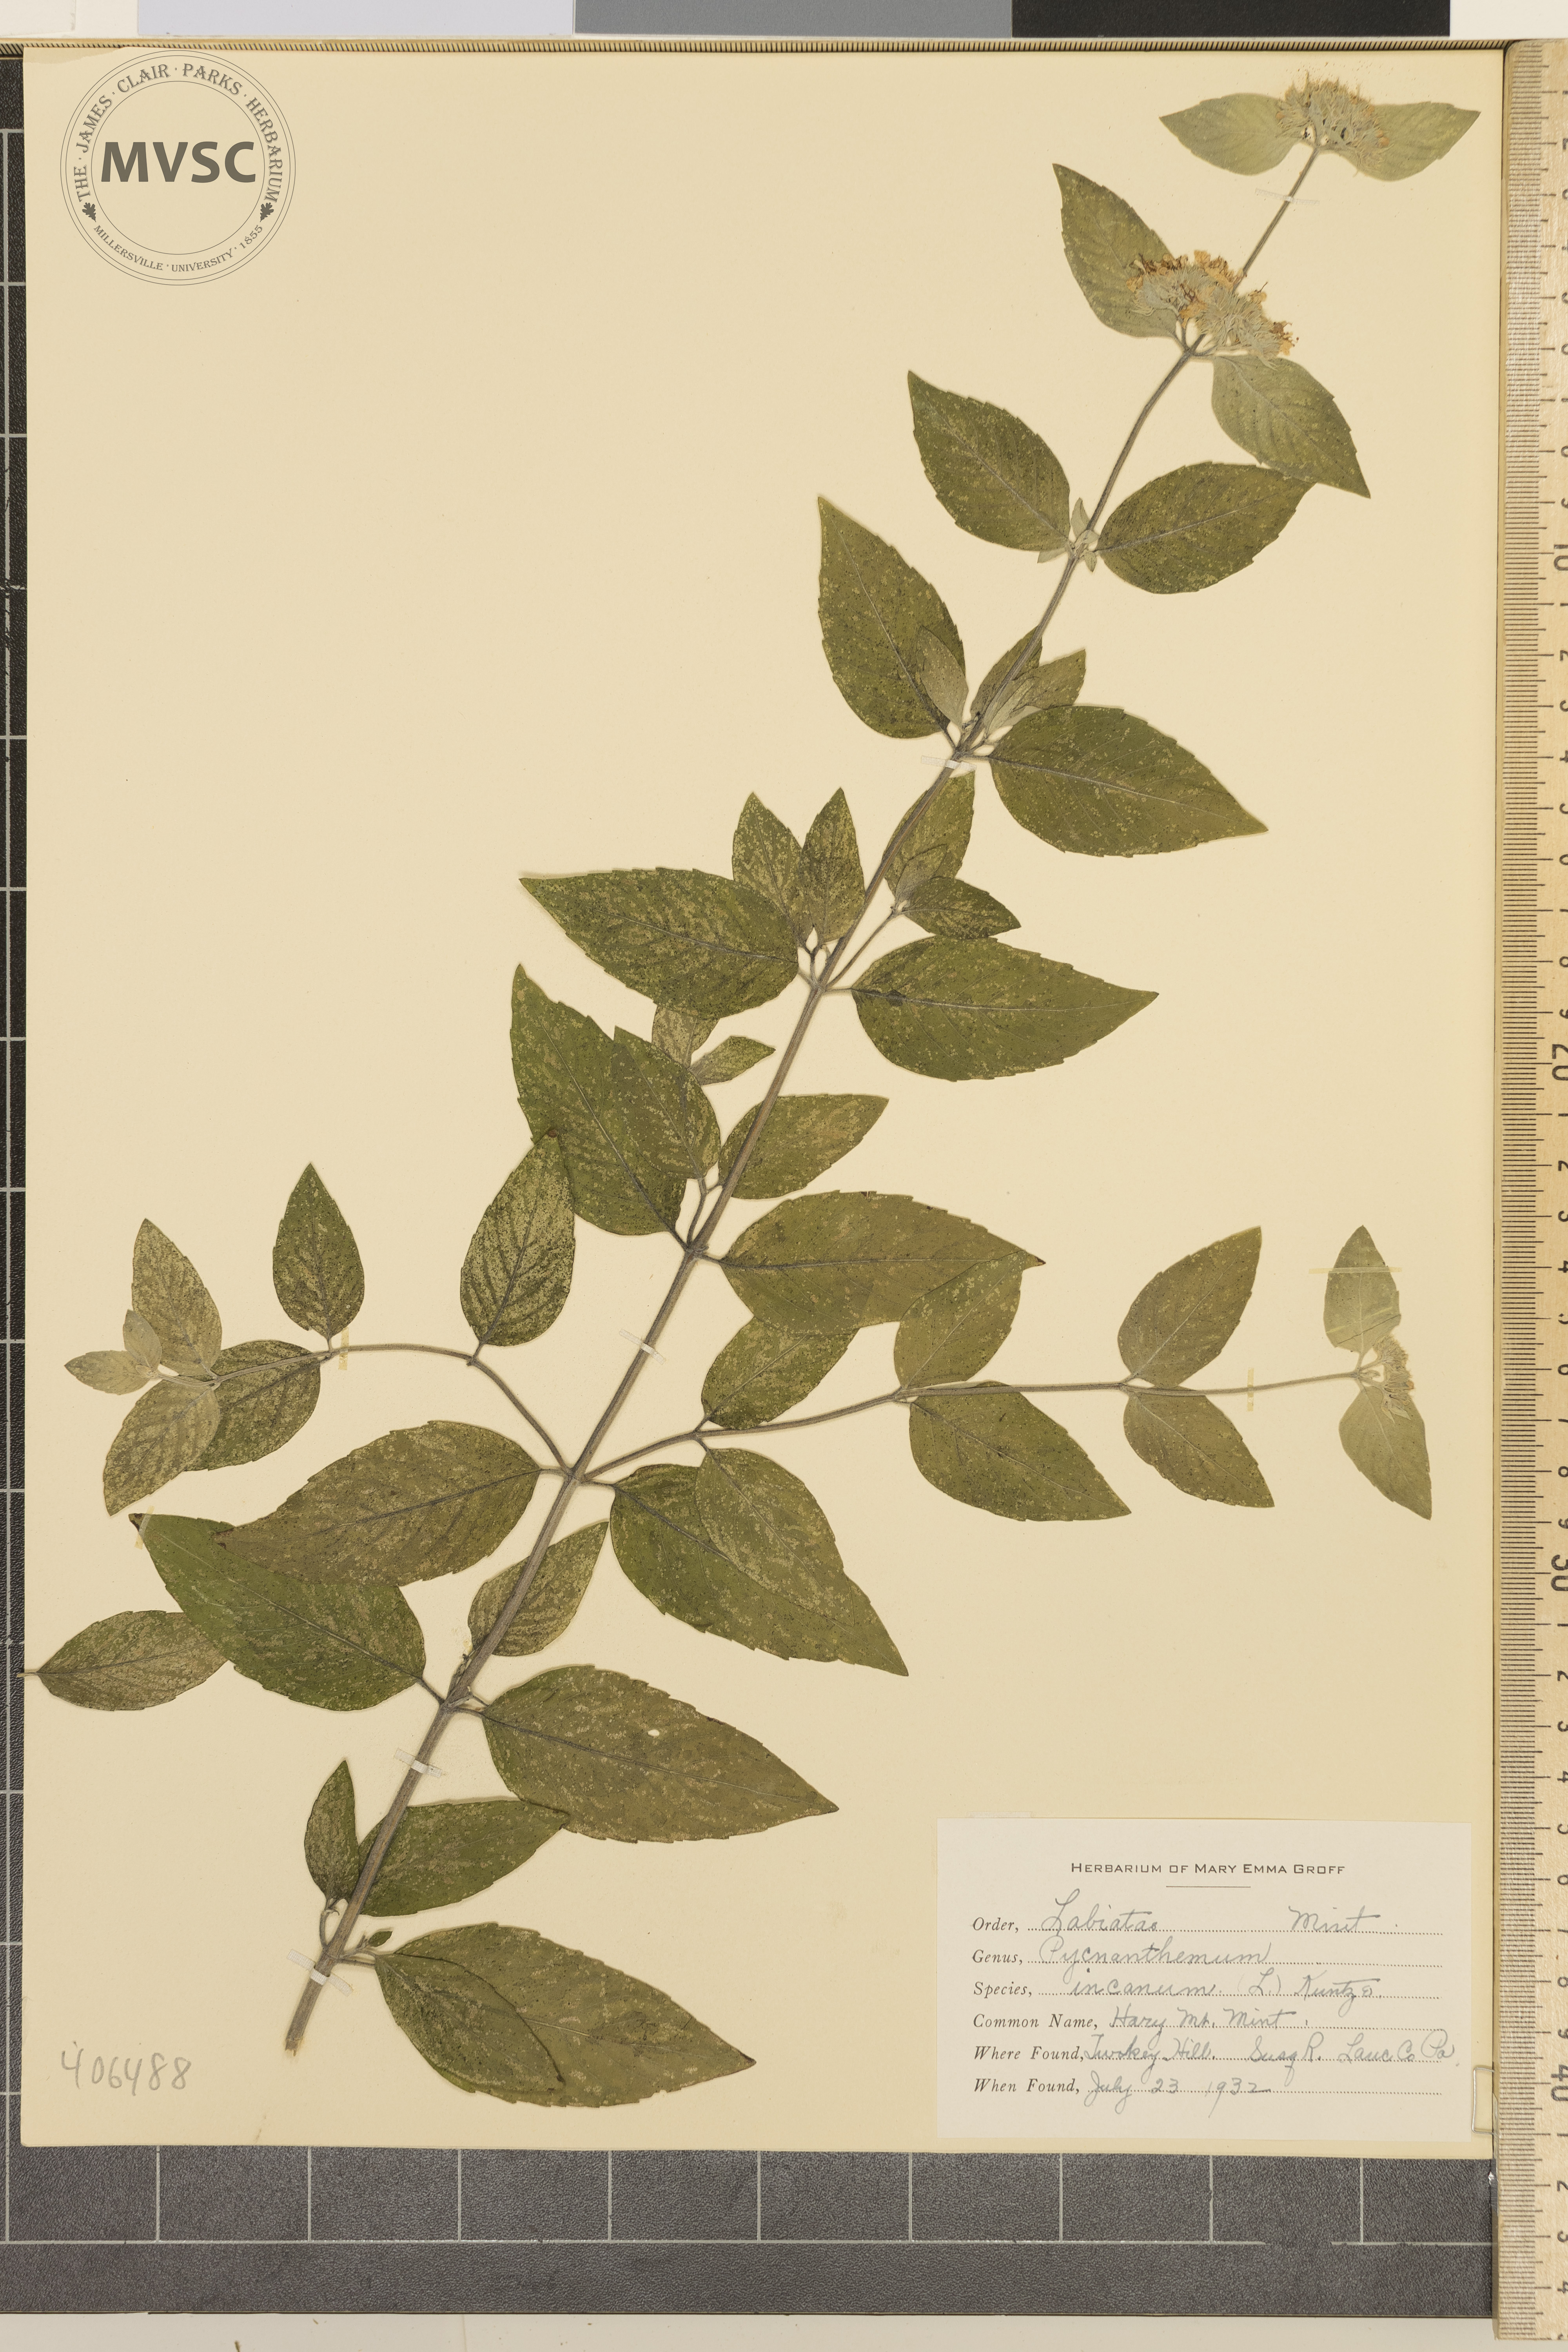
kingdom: Plantae
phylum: Tracheophyta
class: Magnoliopsida
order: Lamiales
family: Lamiaceae
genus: Pycnanthemum
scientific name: Pycnanthemum incanum
